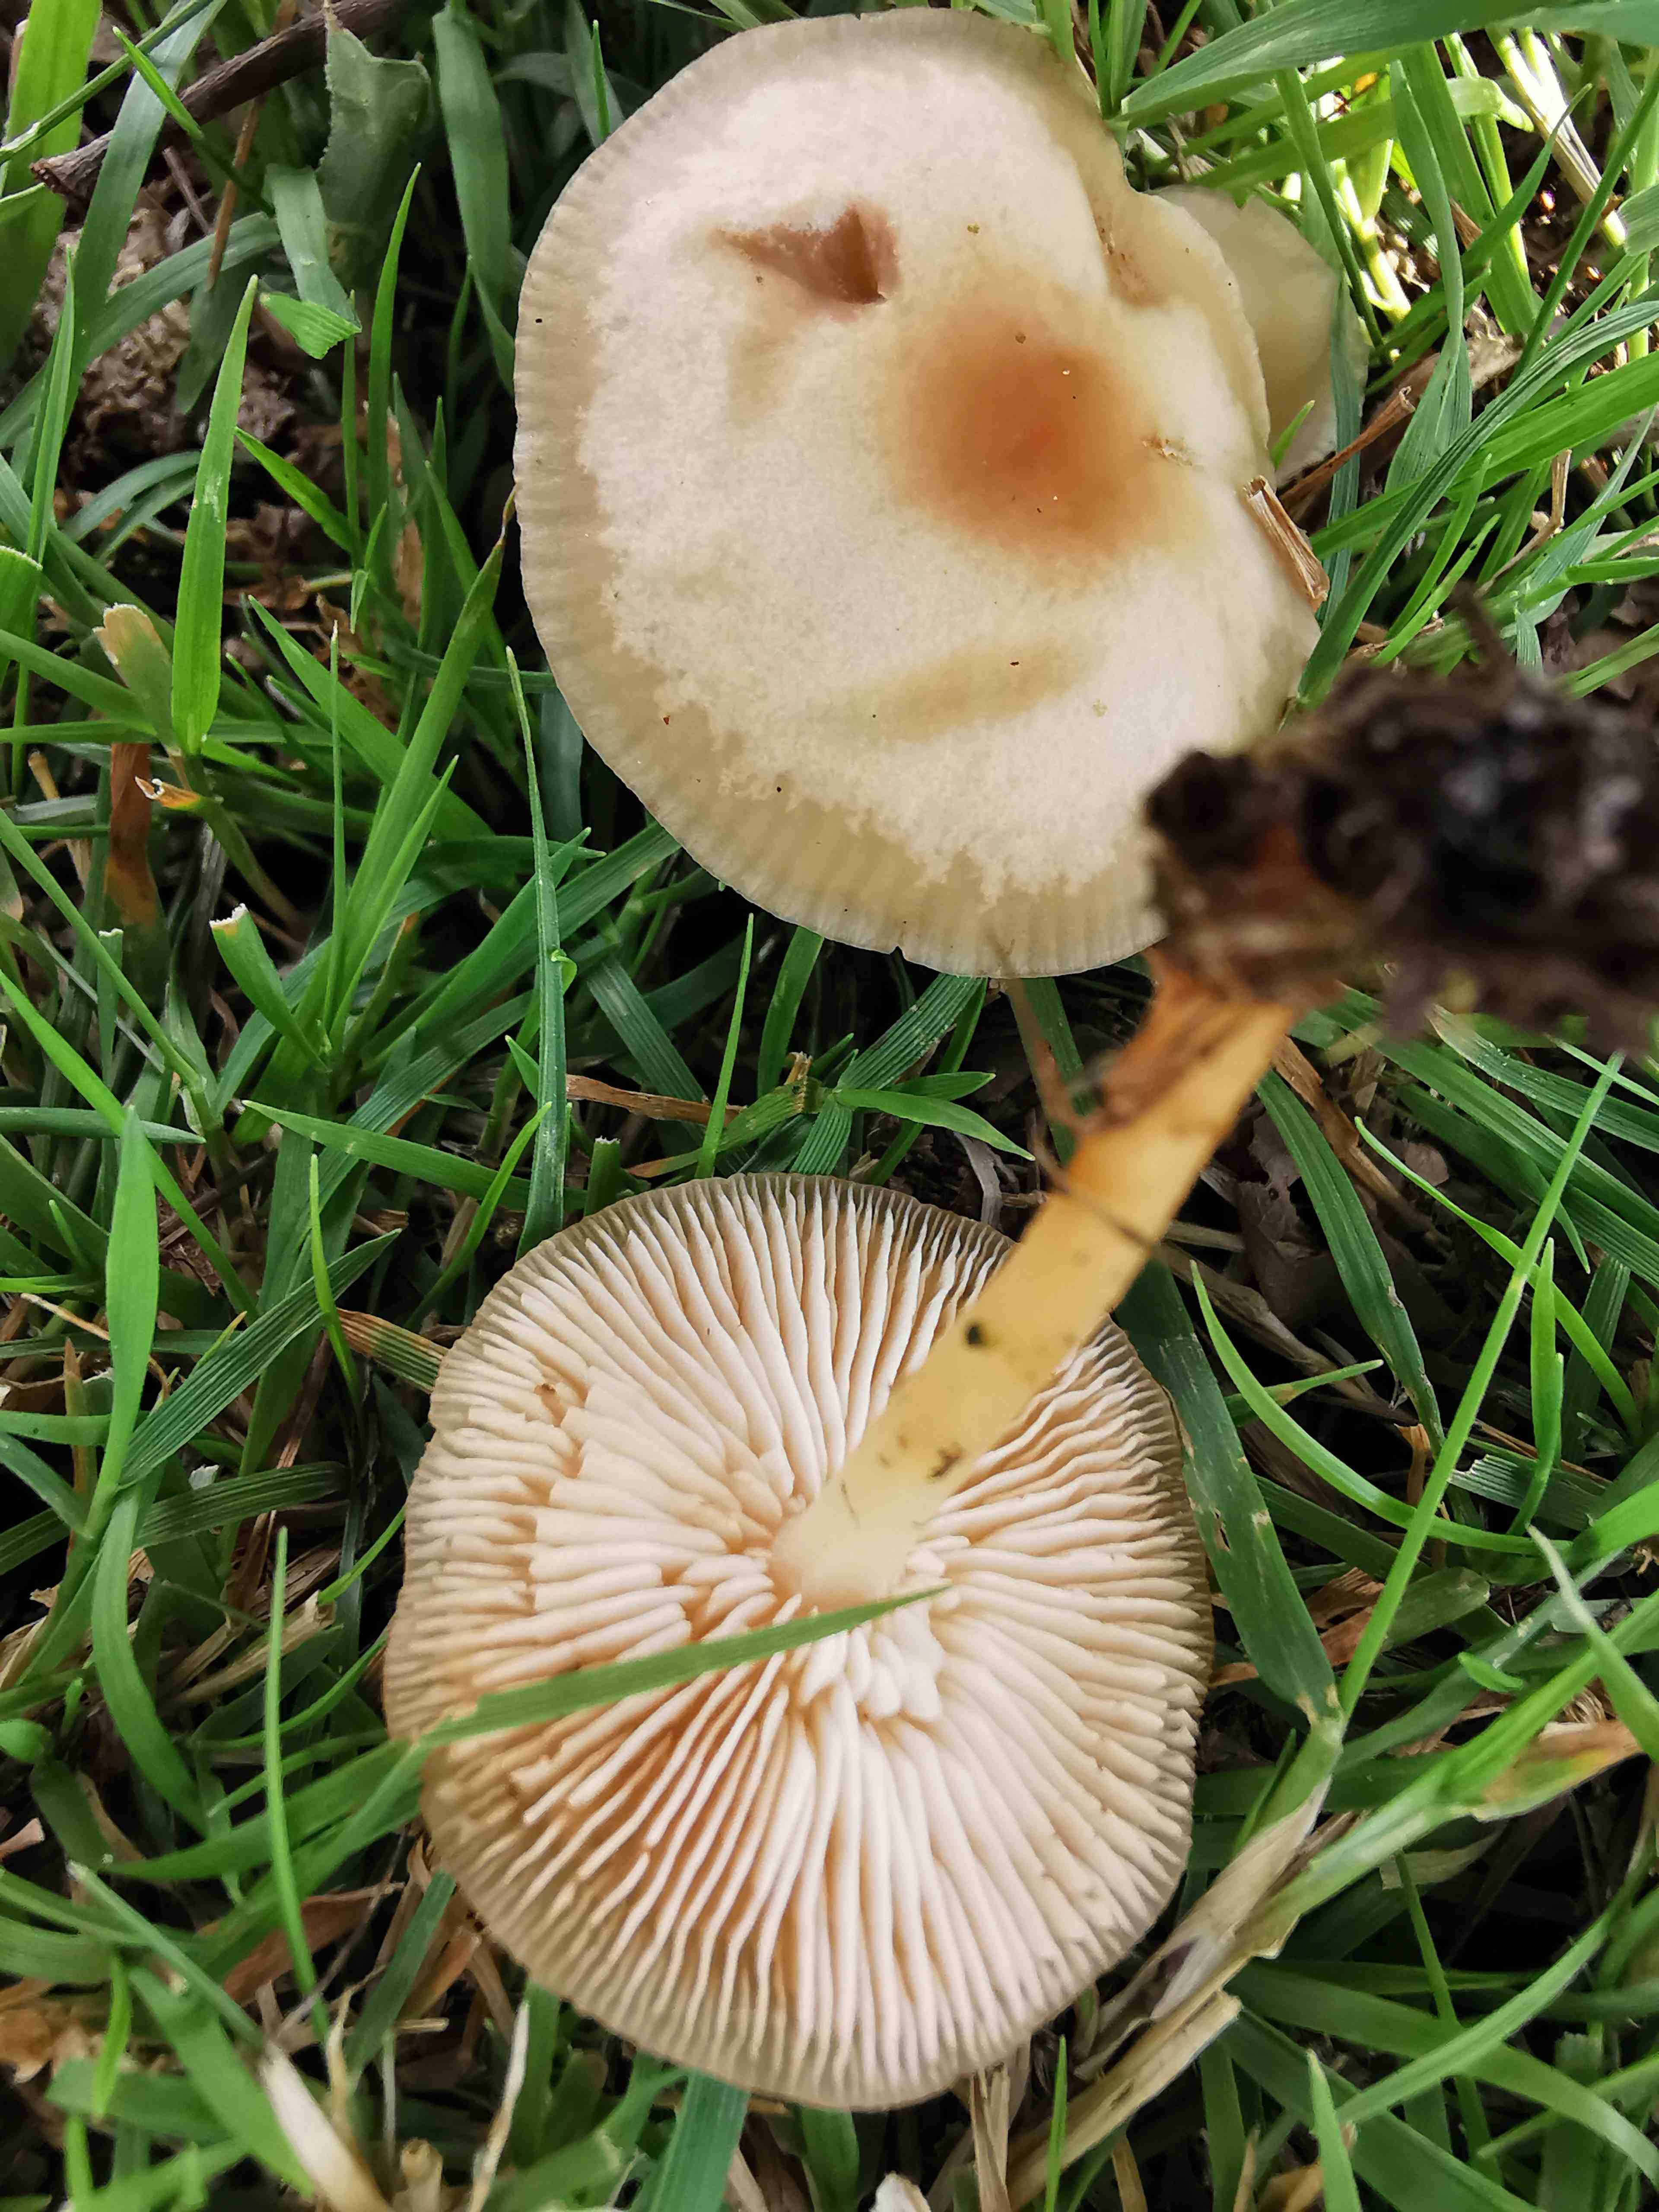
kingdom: Fungi
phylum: Basidiomycota
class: Agaricomycetes
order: Agaricales
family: Omphalotaceae
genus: Gymnopus
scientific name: Gymnopus
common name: fladhat
